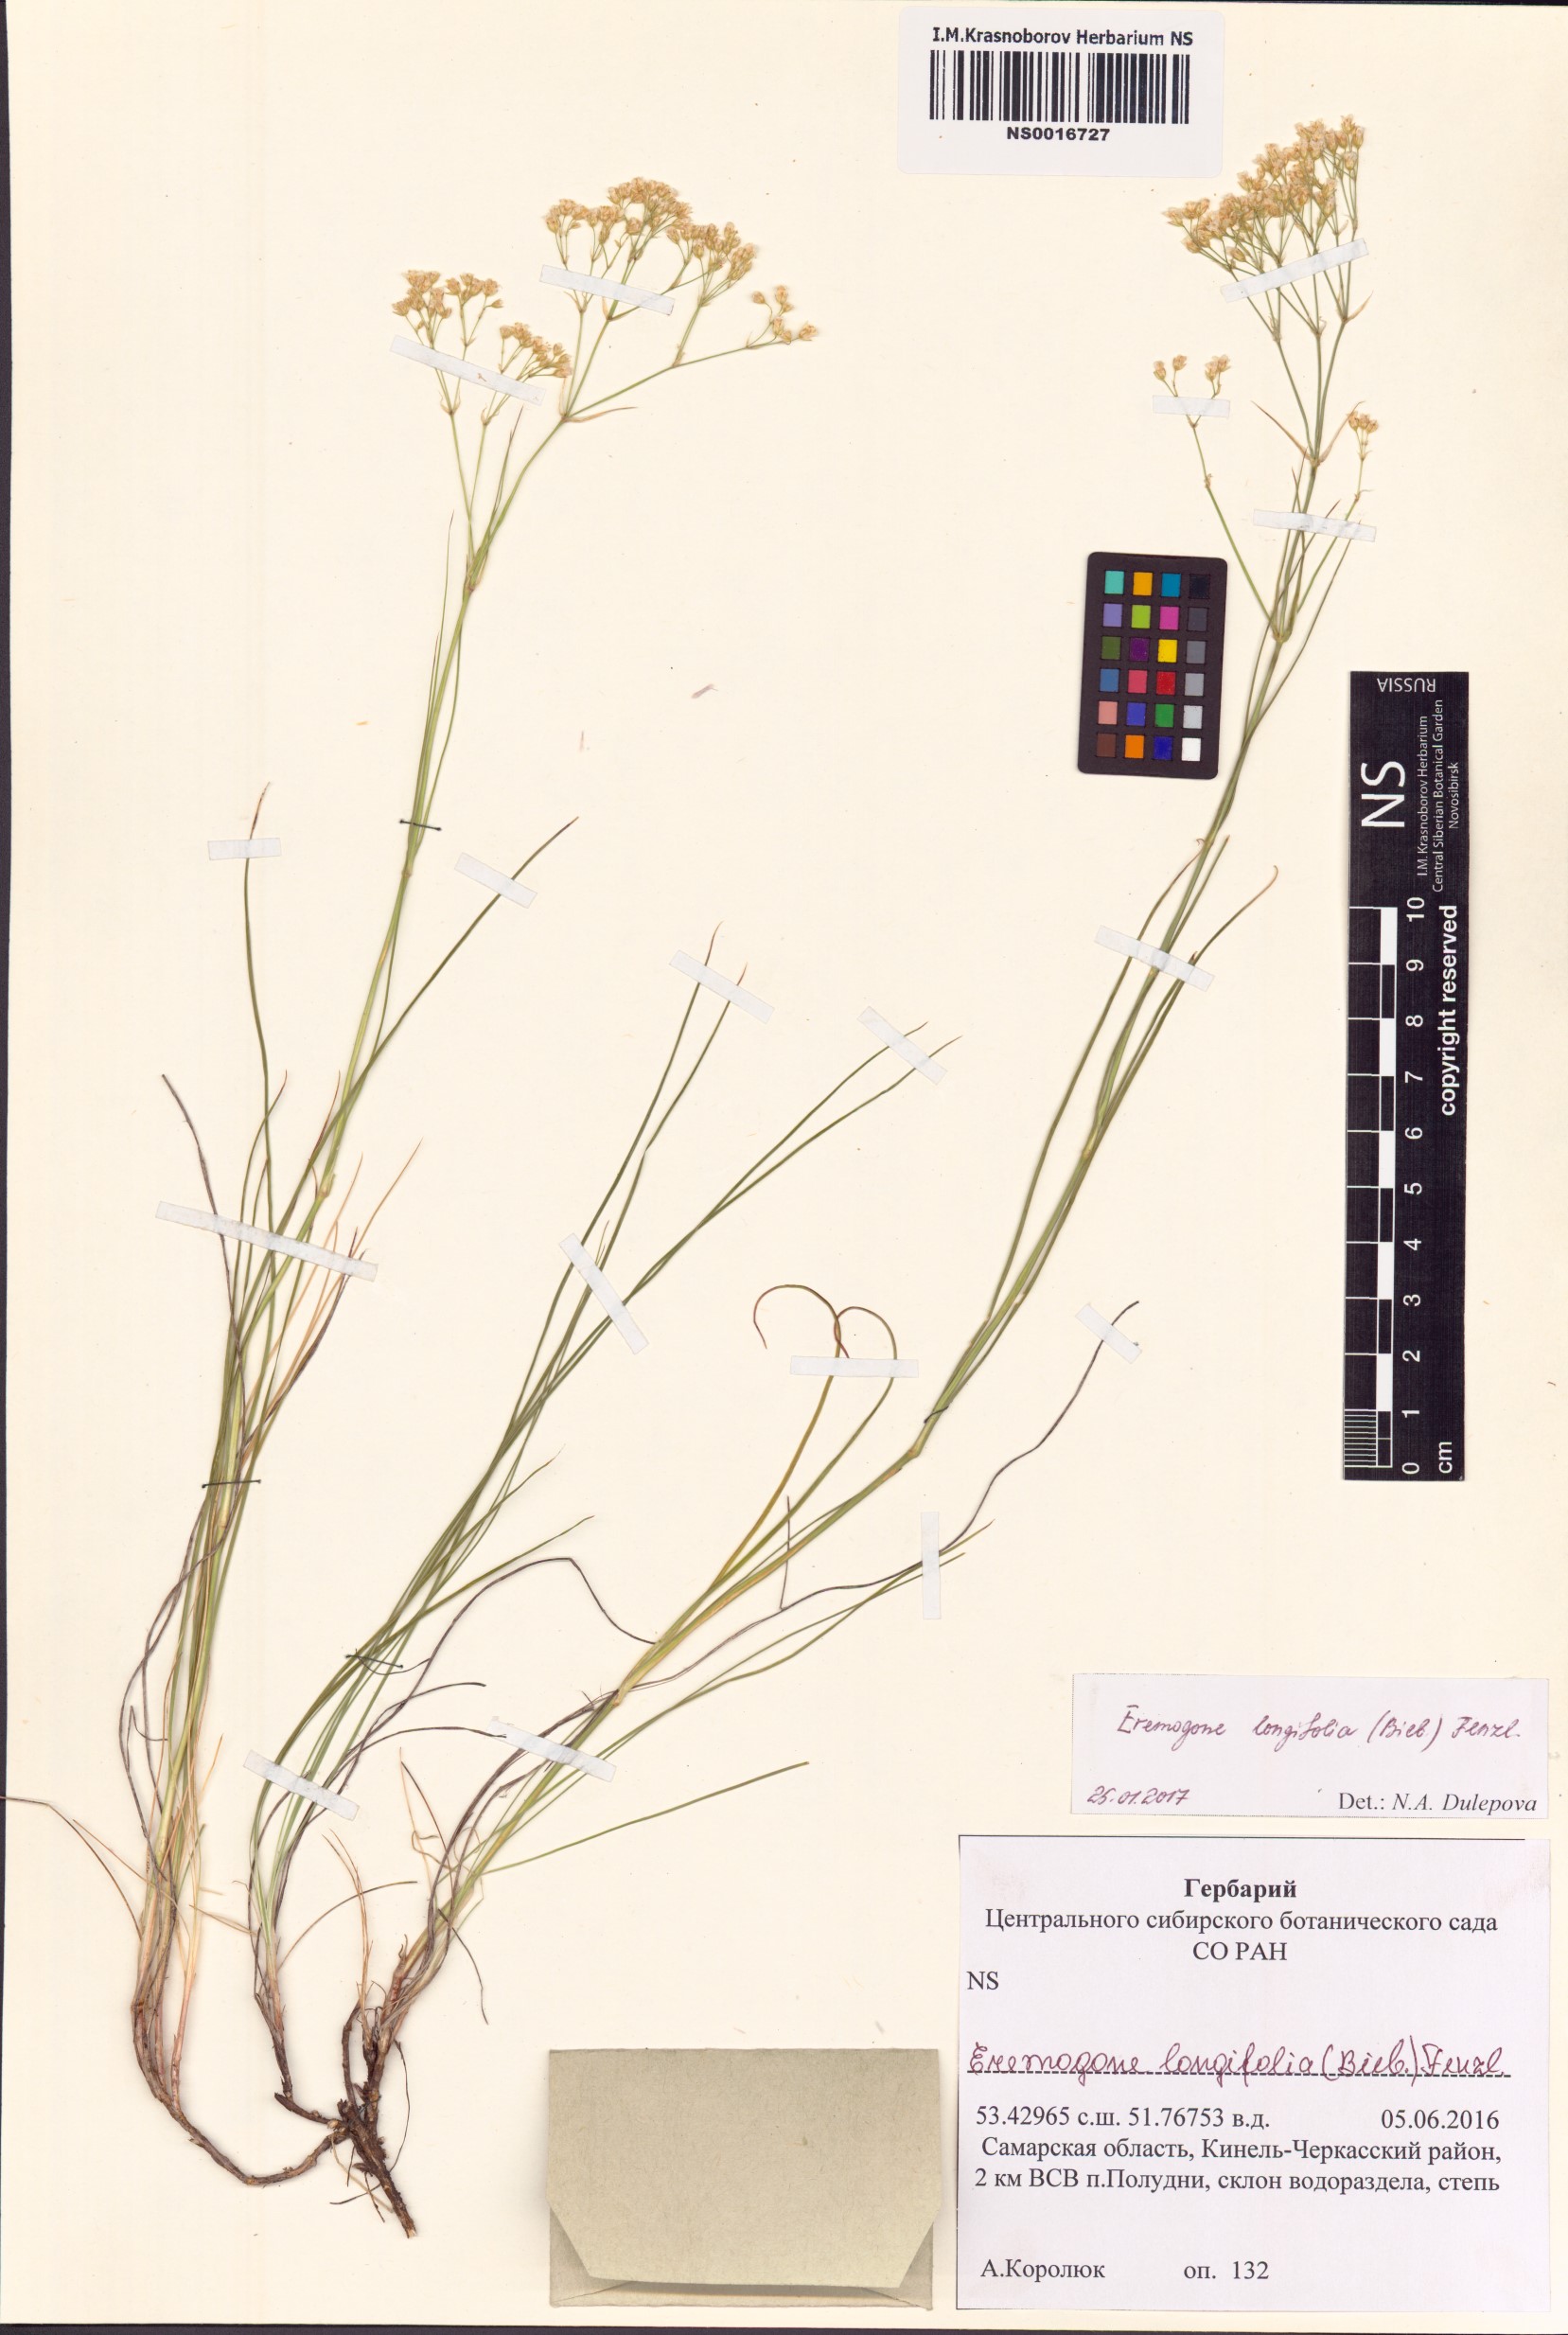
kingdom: Plantae
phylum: Tracheophyta
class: Magnoliopsida
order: Caryophyllales
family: Caryophyllaceae
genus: Eremogone
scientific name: Eremogone longifolia
